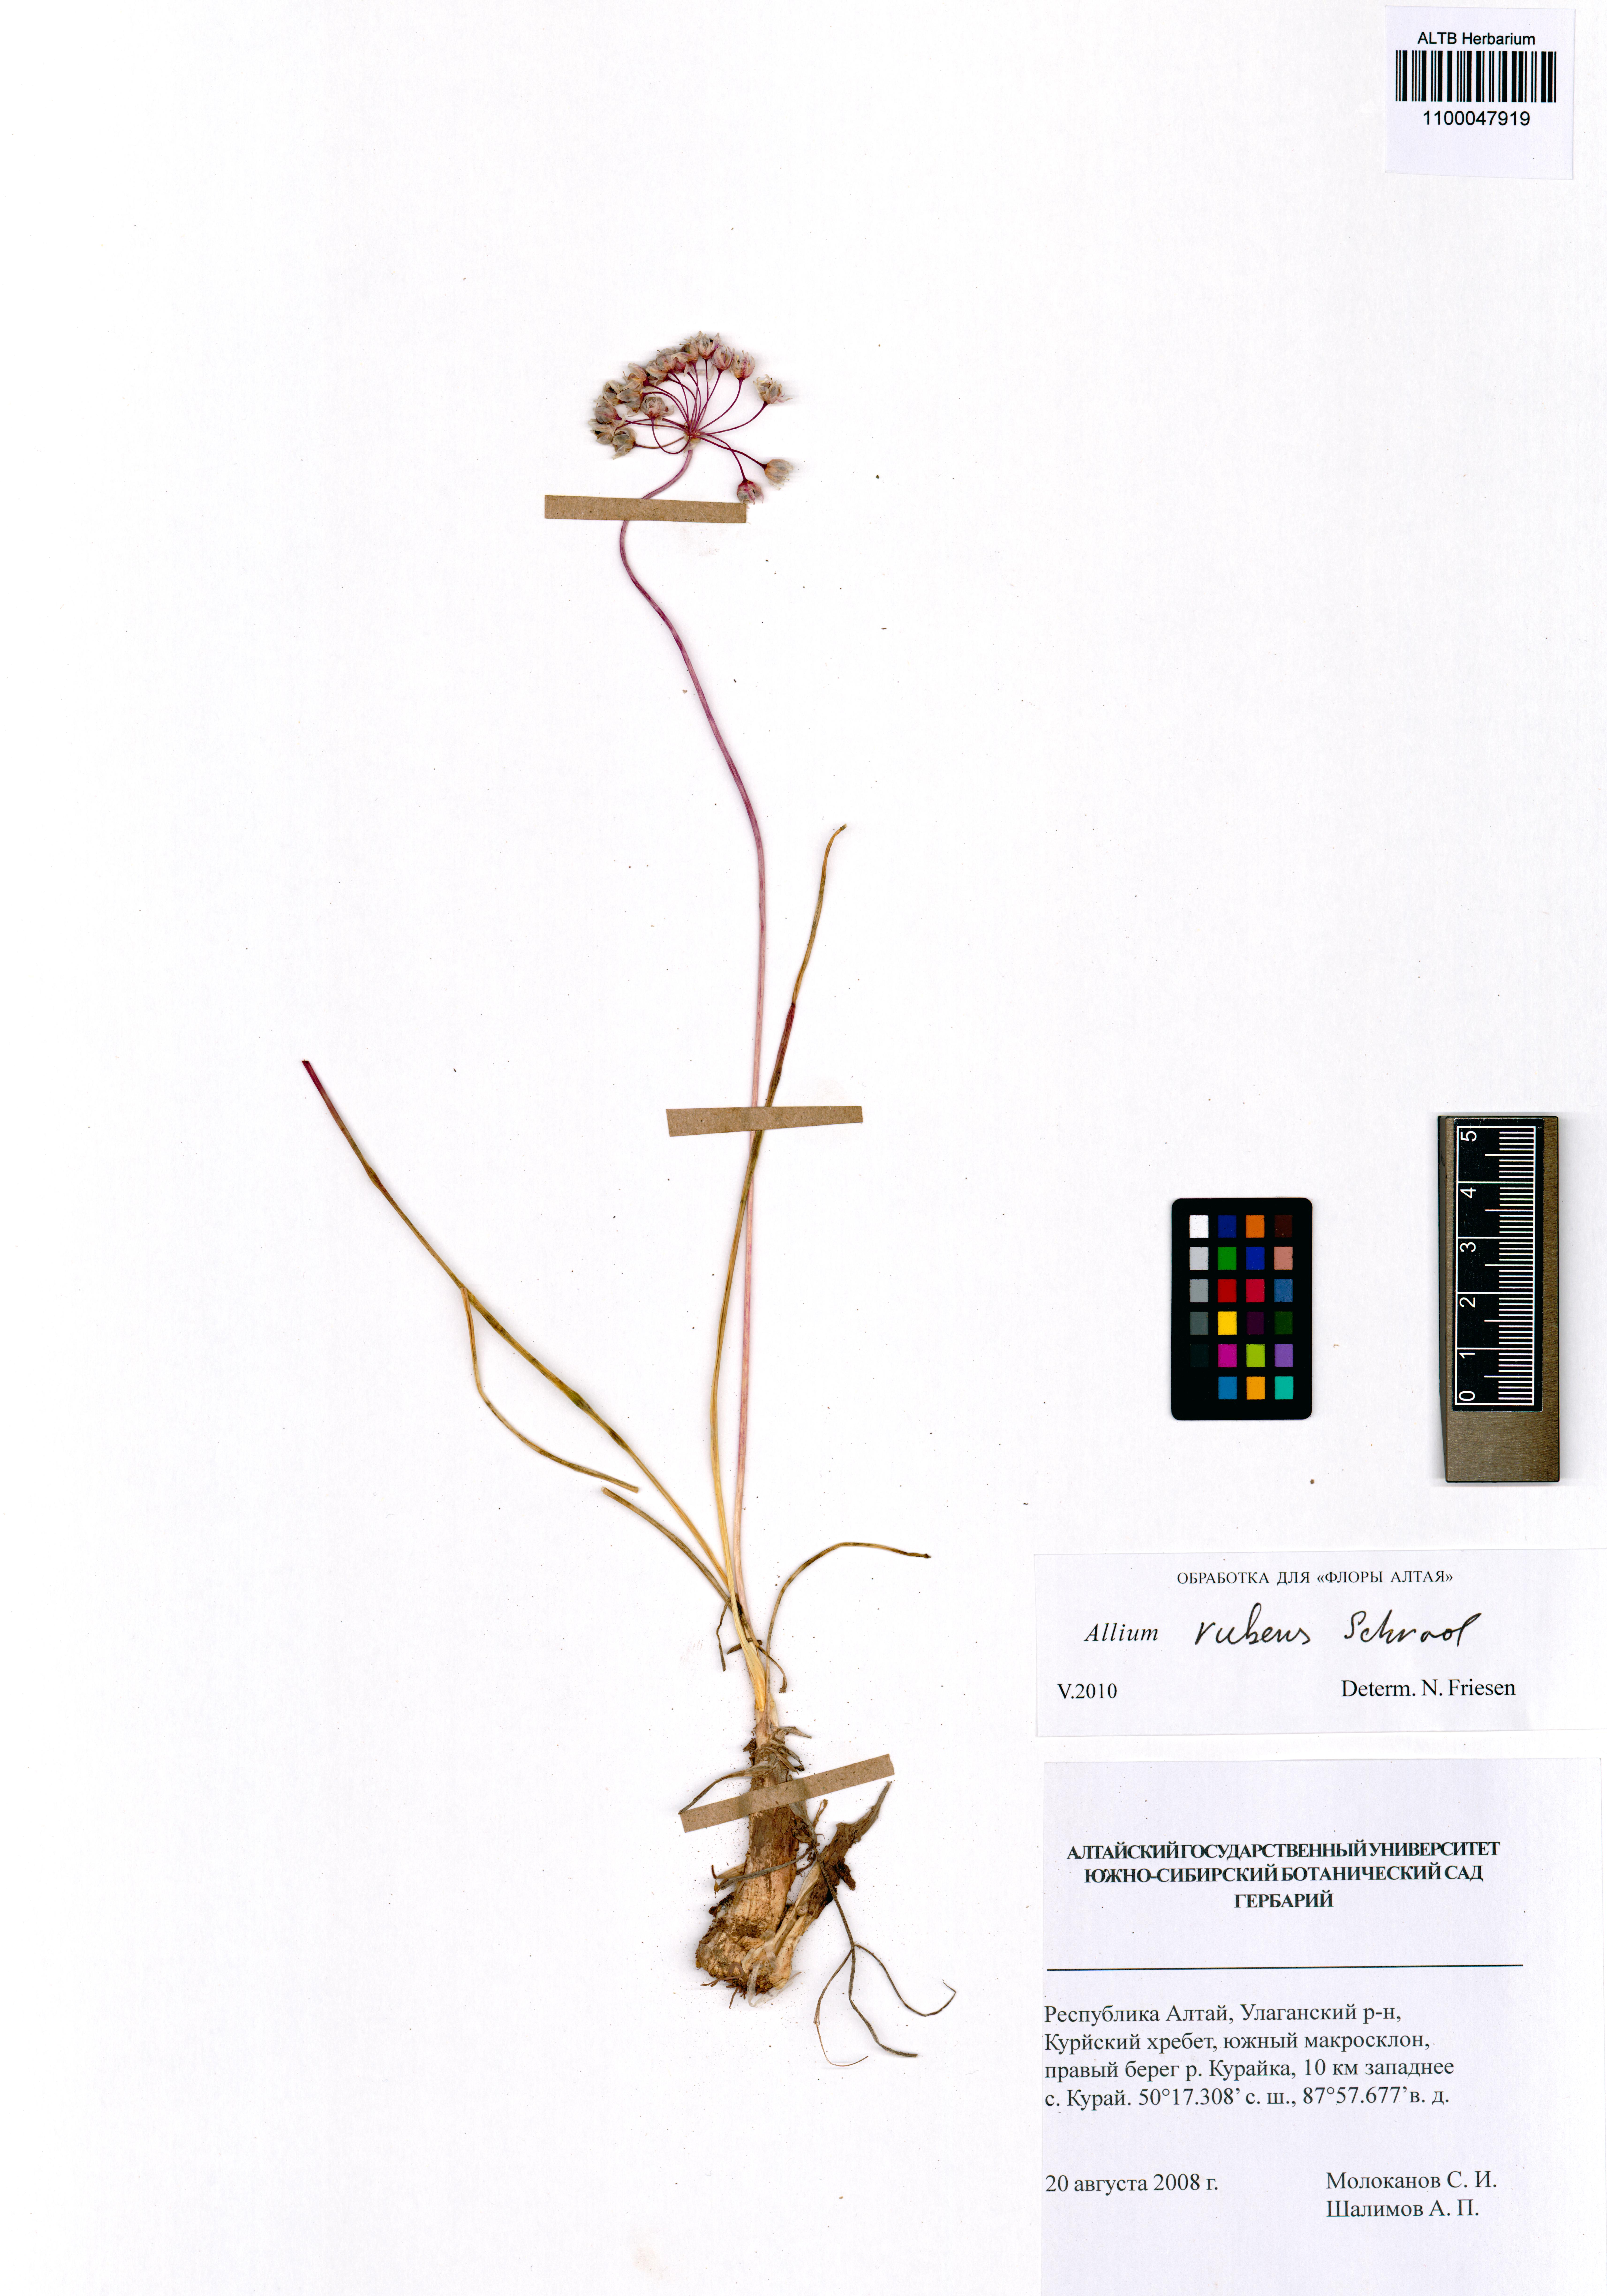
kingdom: Plantae
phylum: Tracheophyta
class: Liliopsida
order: Asparagales
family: Amaryllidaceae
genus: Allium
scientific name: Allium rubens
